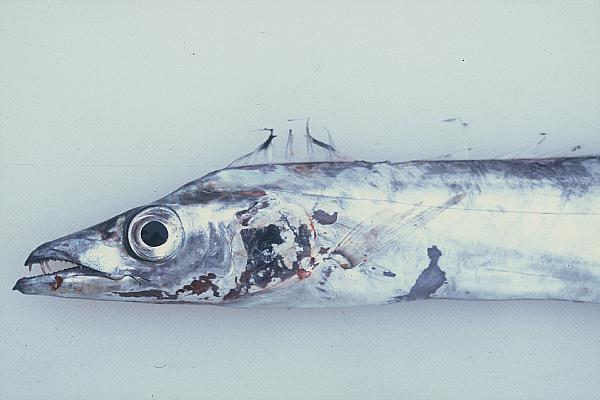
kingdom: Animalia
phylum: Chordata
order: Perciformes
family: Trichiuridae
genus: Lepidopus
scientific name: Lepidopus caudatus
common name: Silver scabbardfish
